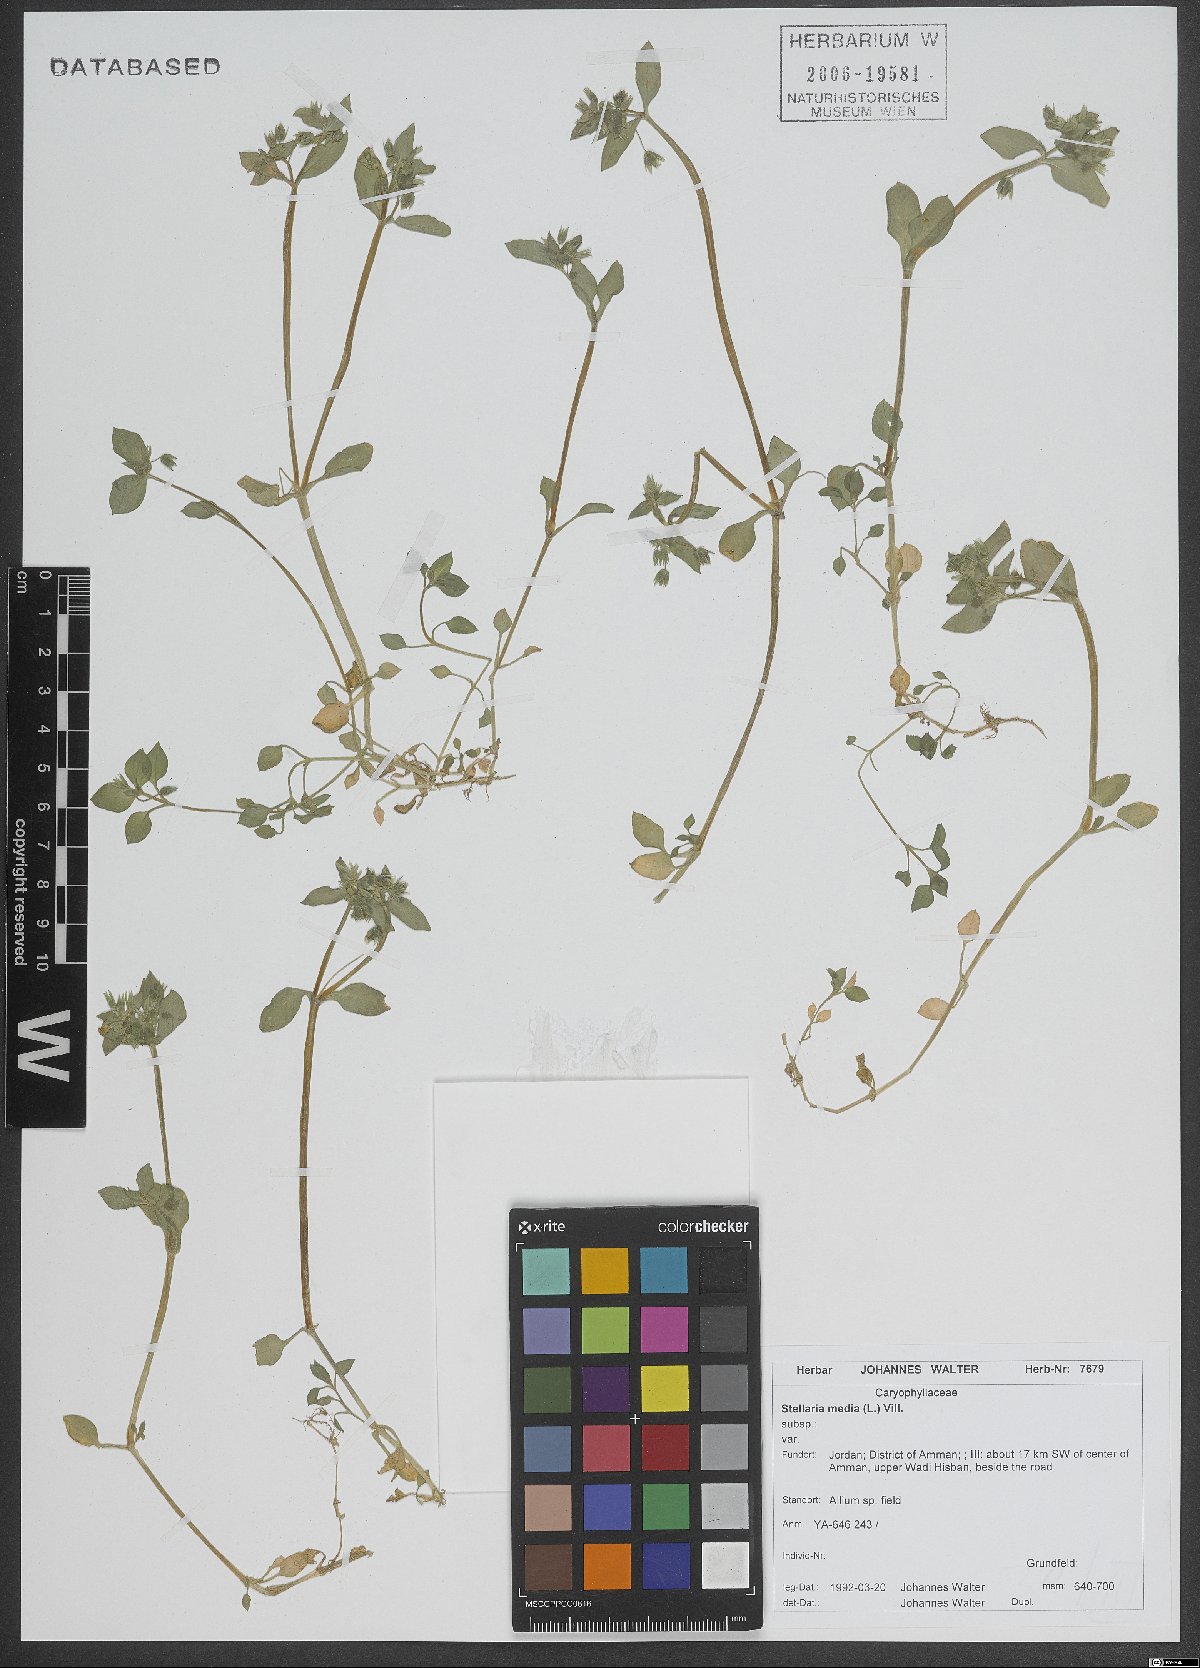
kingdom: Plantae
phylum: Tracheophyta
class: Magnoliopsida
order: Caryophyllales
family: Caryophyllaceae
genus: Stellaria
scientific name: Stellaria apetala
